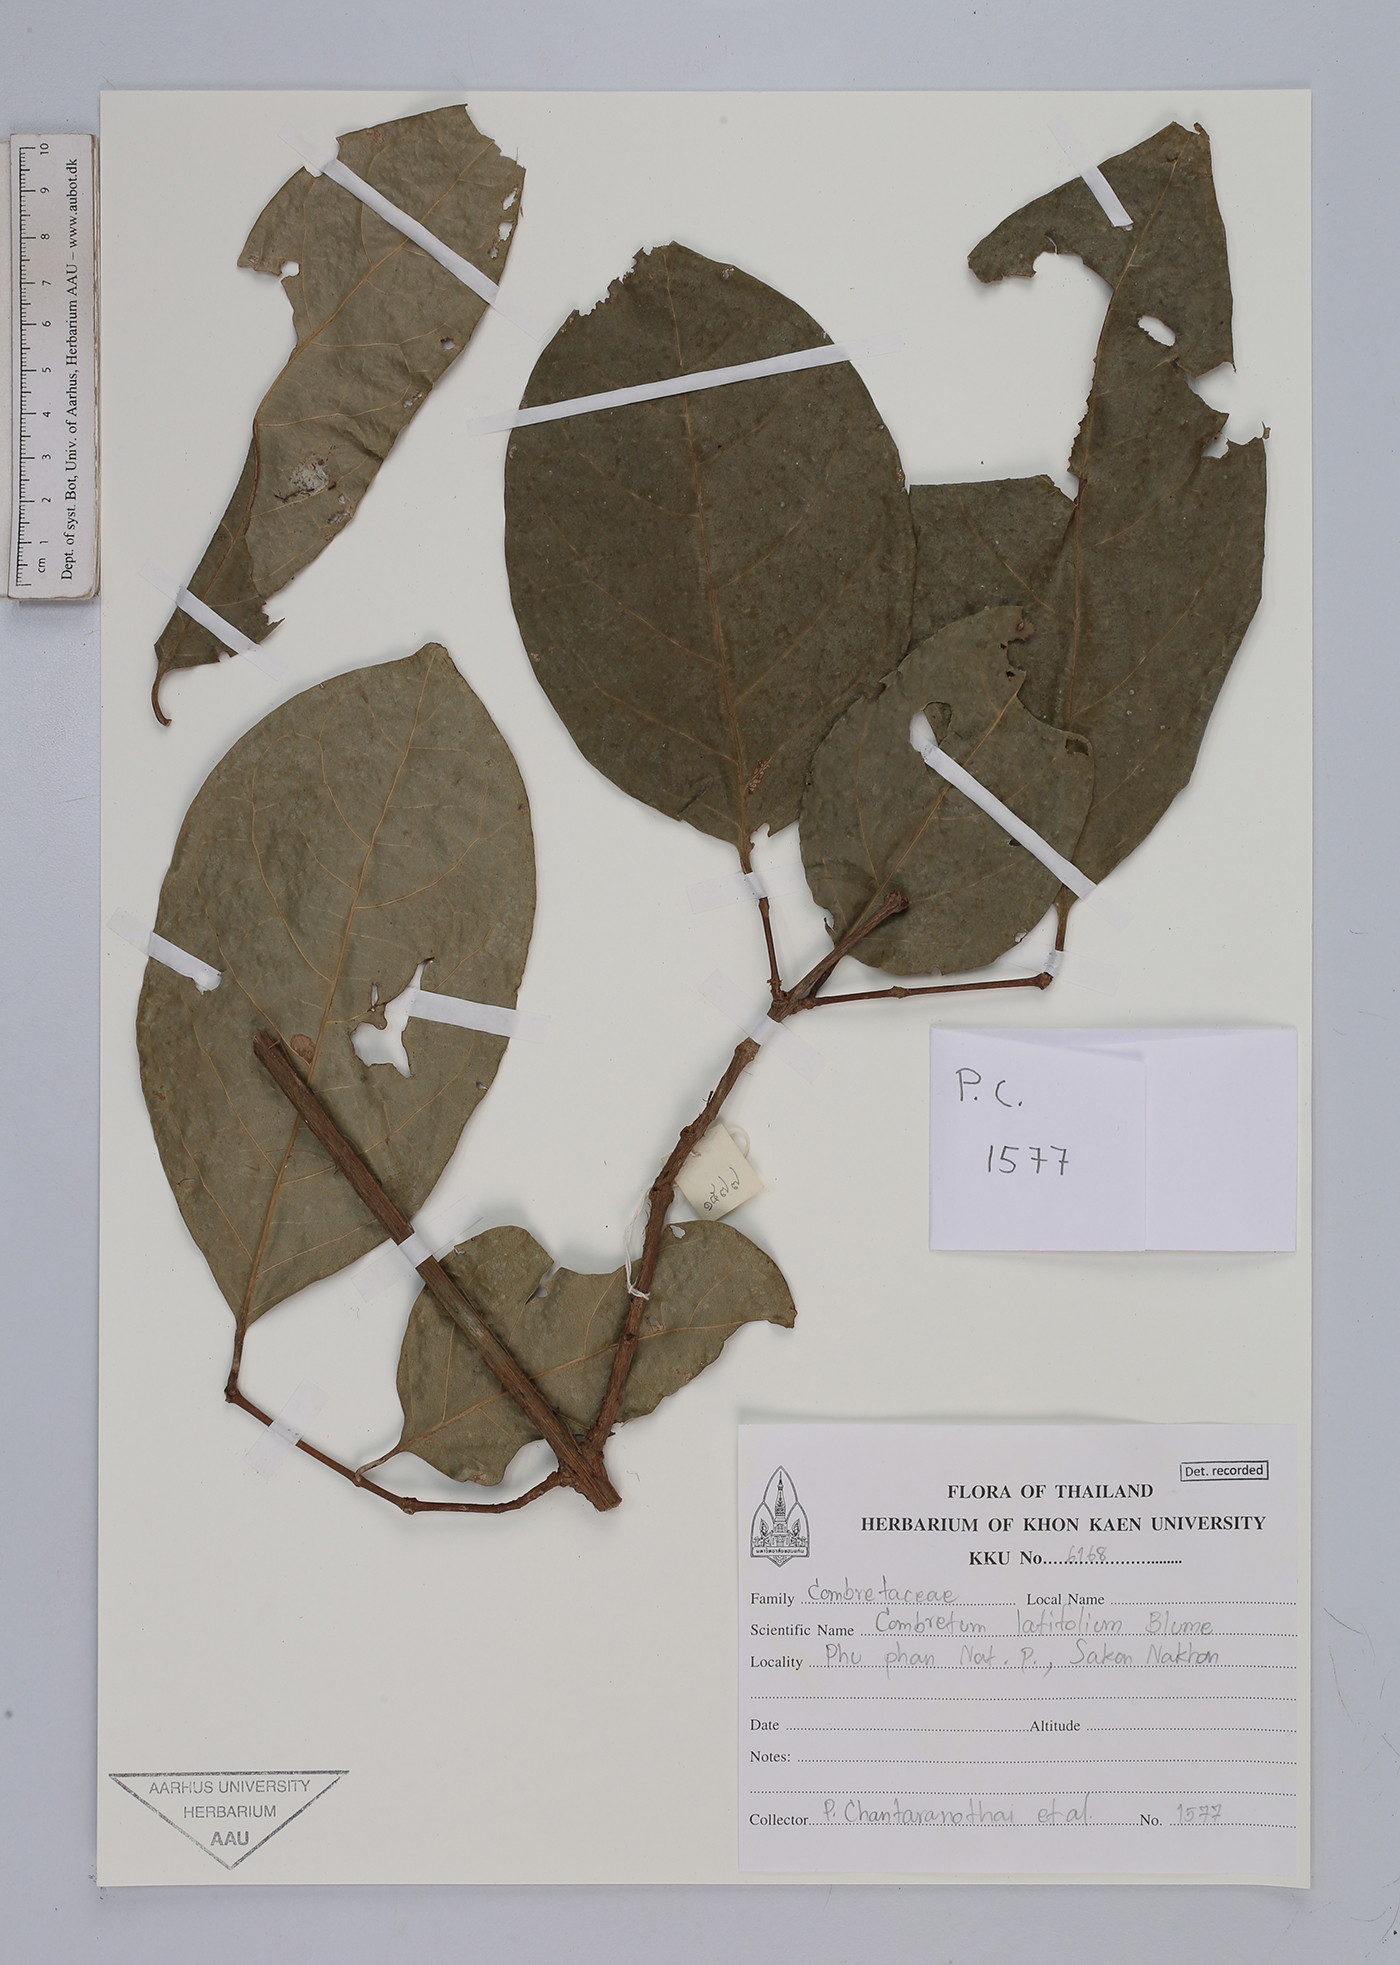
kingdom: Plantae
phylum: Tracheophyta
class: Magnoliopsida
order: Myrtales
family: Combretaceae
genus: Combretum
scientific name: Combretum latifolium
